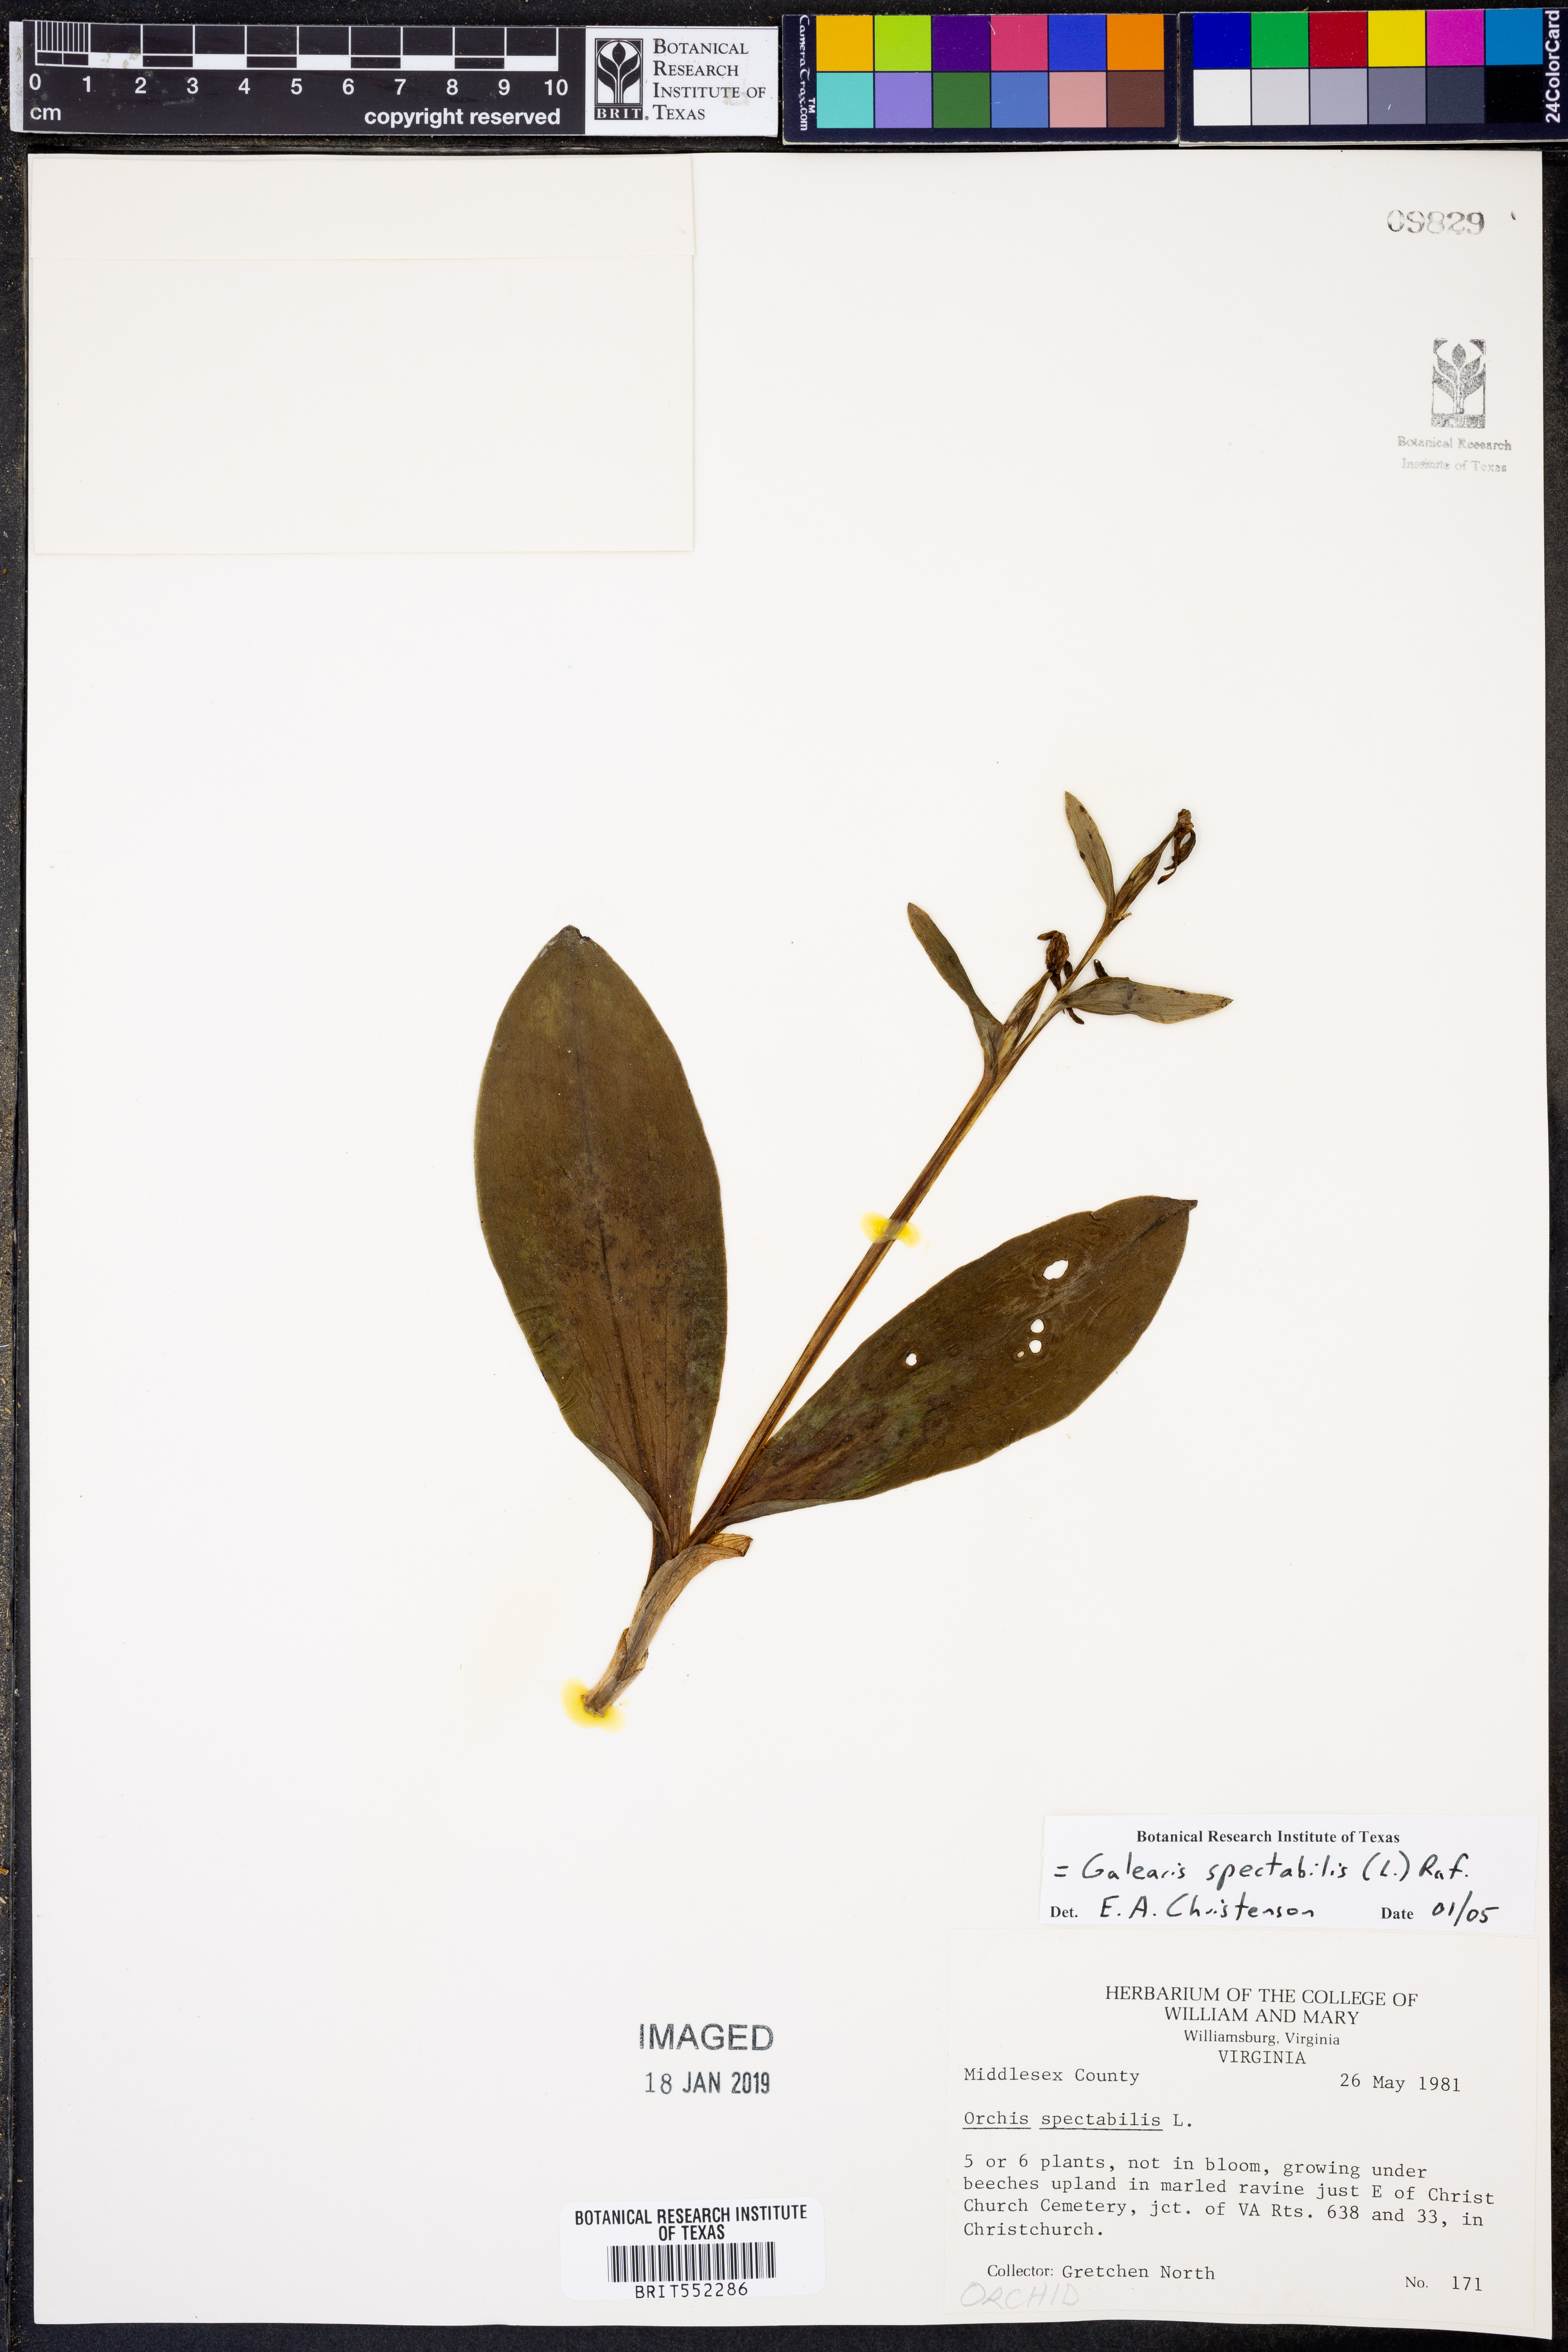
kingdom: Plantae
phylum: Tracheophyta
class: Liliopsida
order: Asparagales
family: Orchidaceae
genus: Galearis
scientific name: Galearis spectabilis
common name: Purple-hooded orchis
